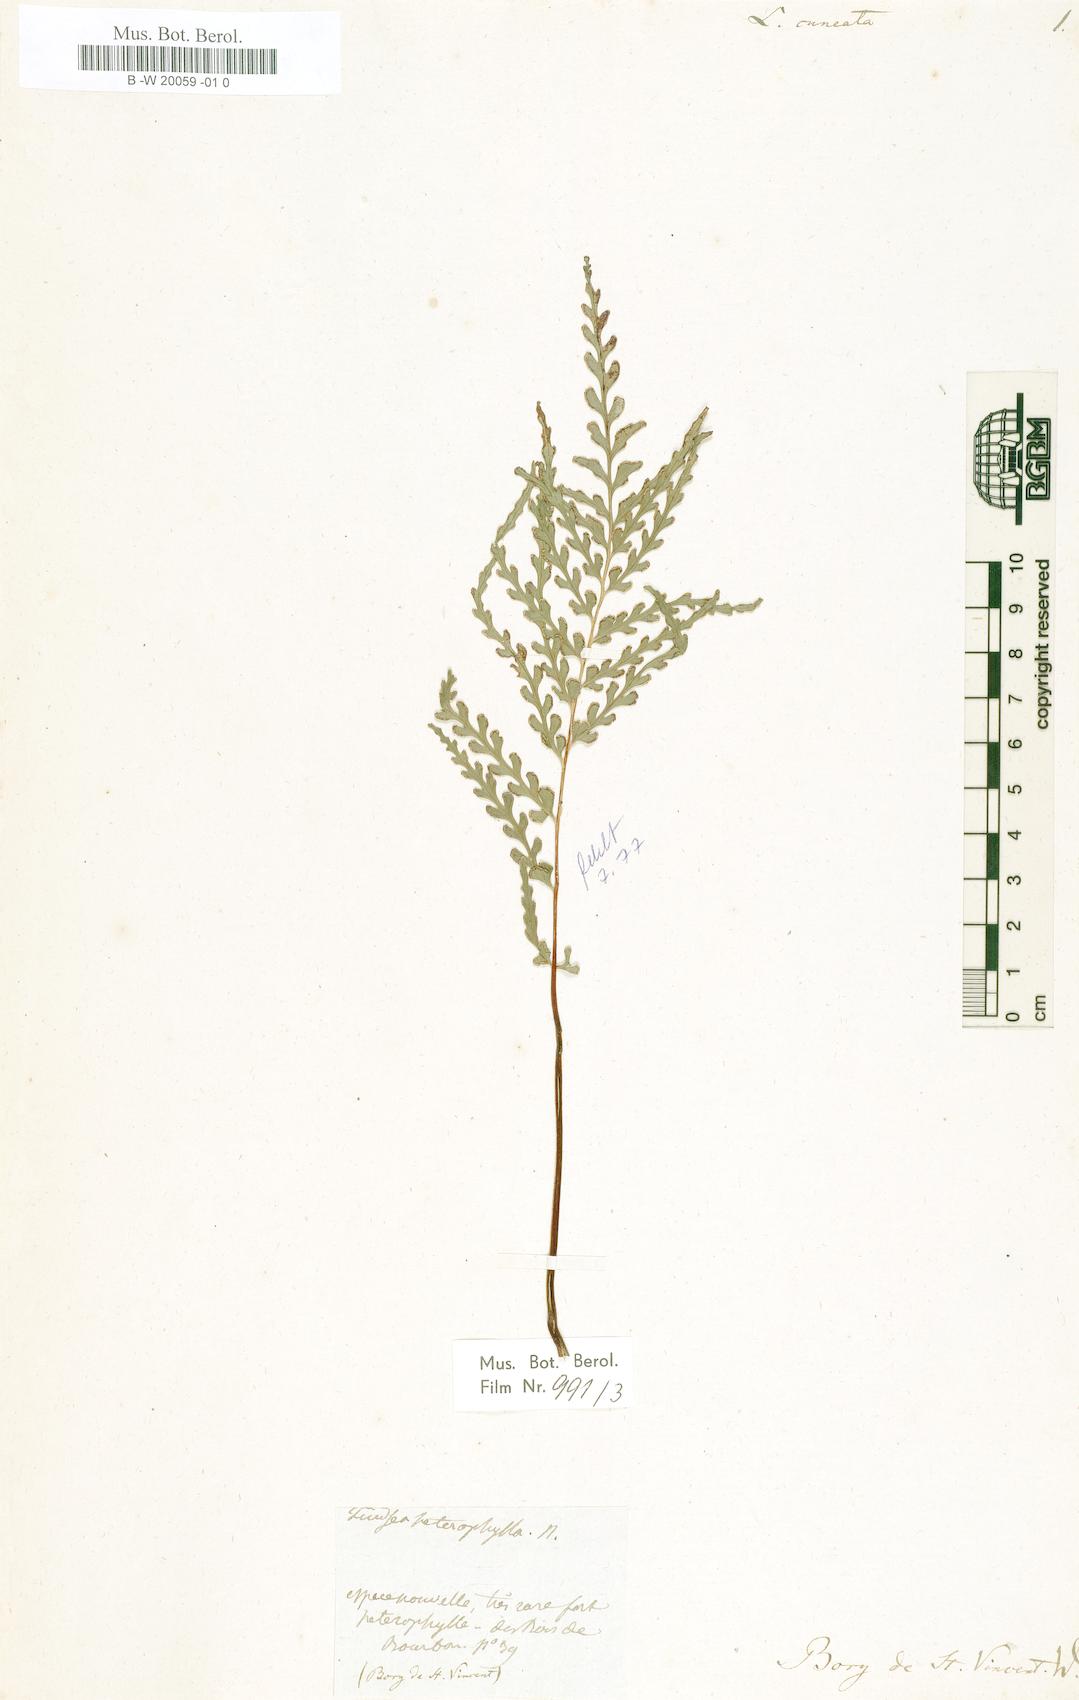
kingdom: Plantae
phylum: Tracheophyta
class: Polypodiopsida
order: Polypodiales
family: Lindsaeaceae
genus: Lindsaea
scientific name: Lindsaea
